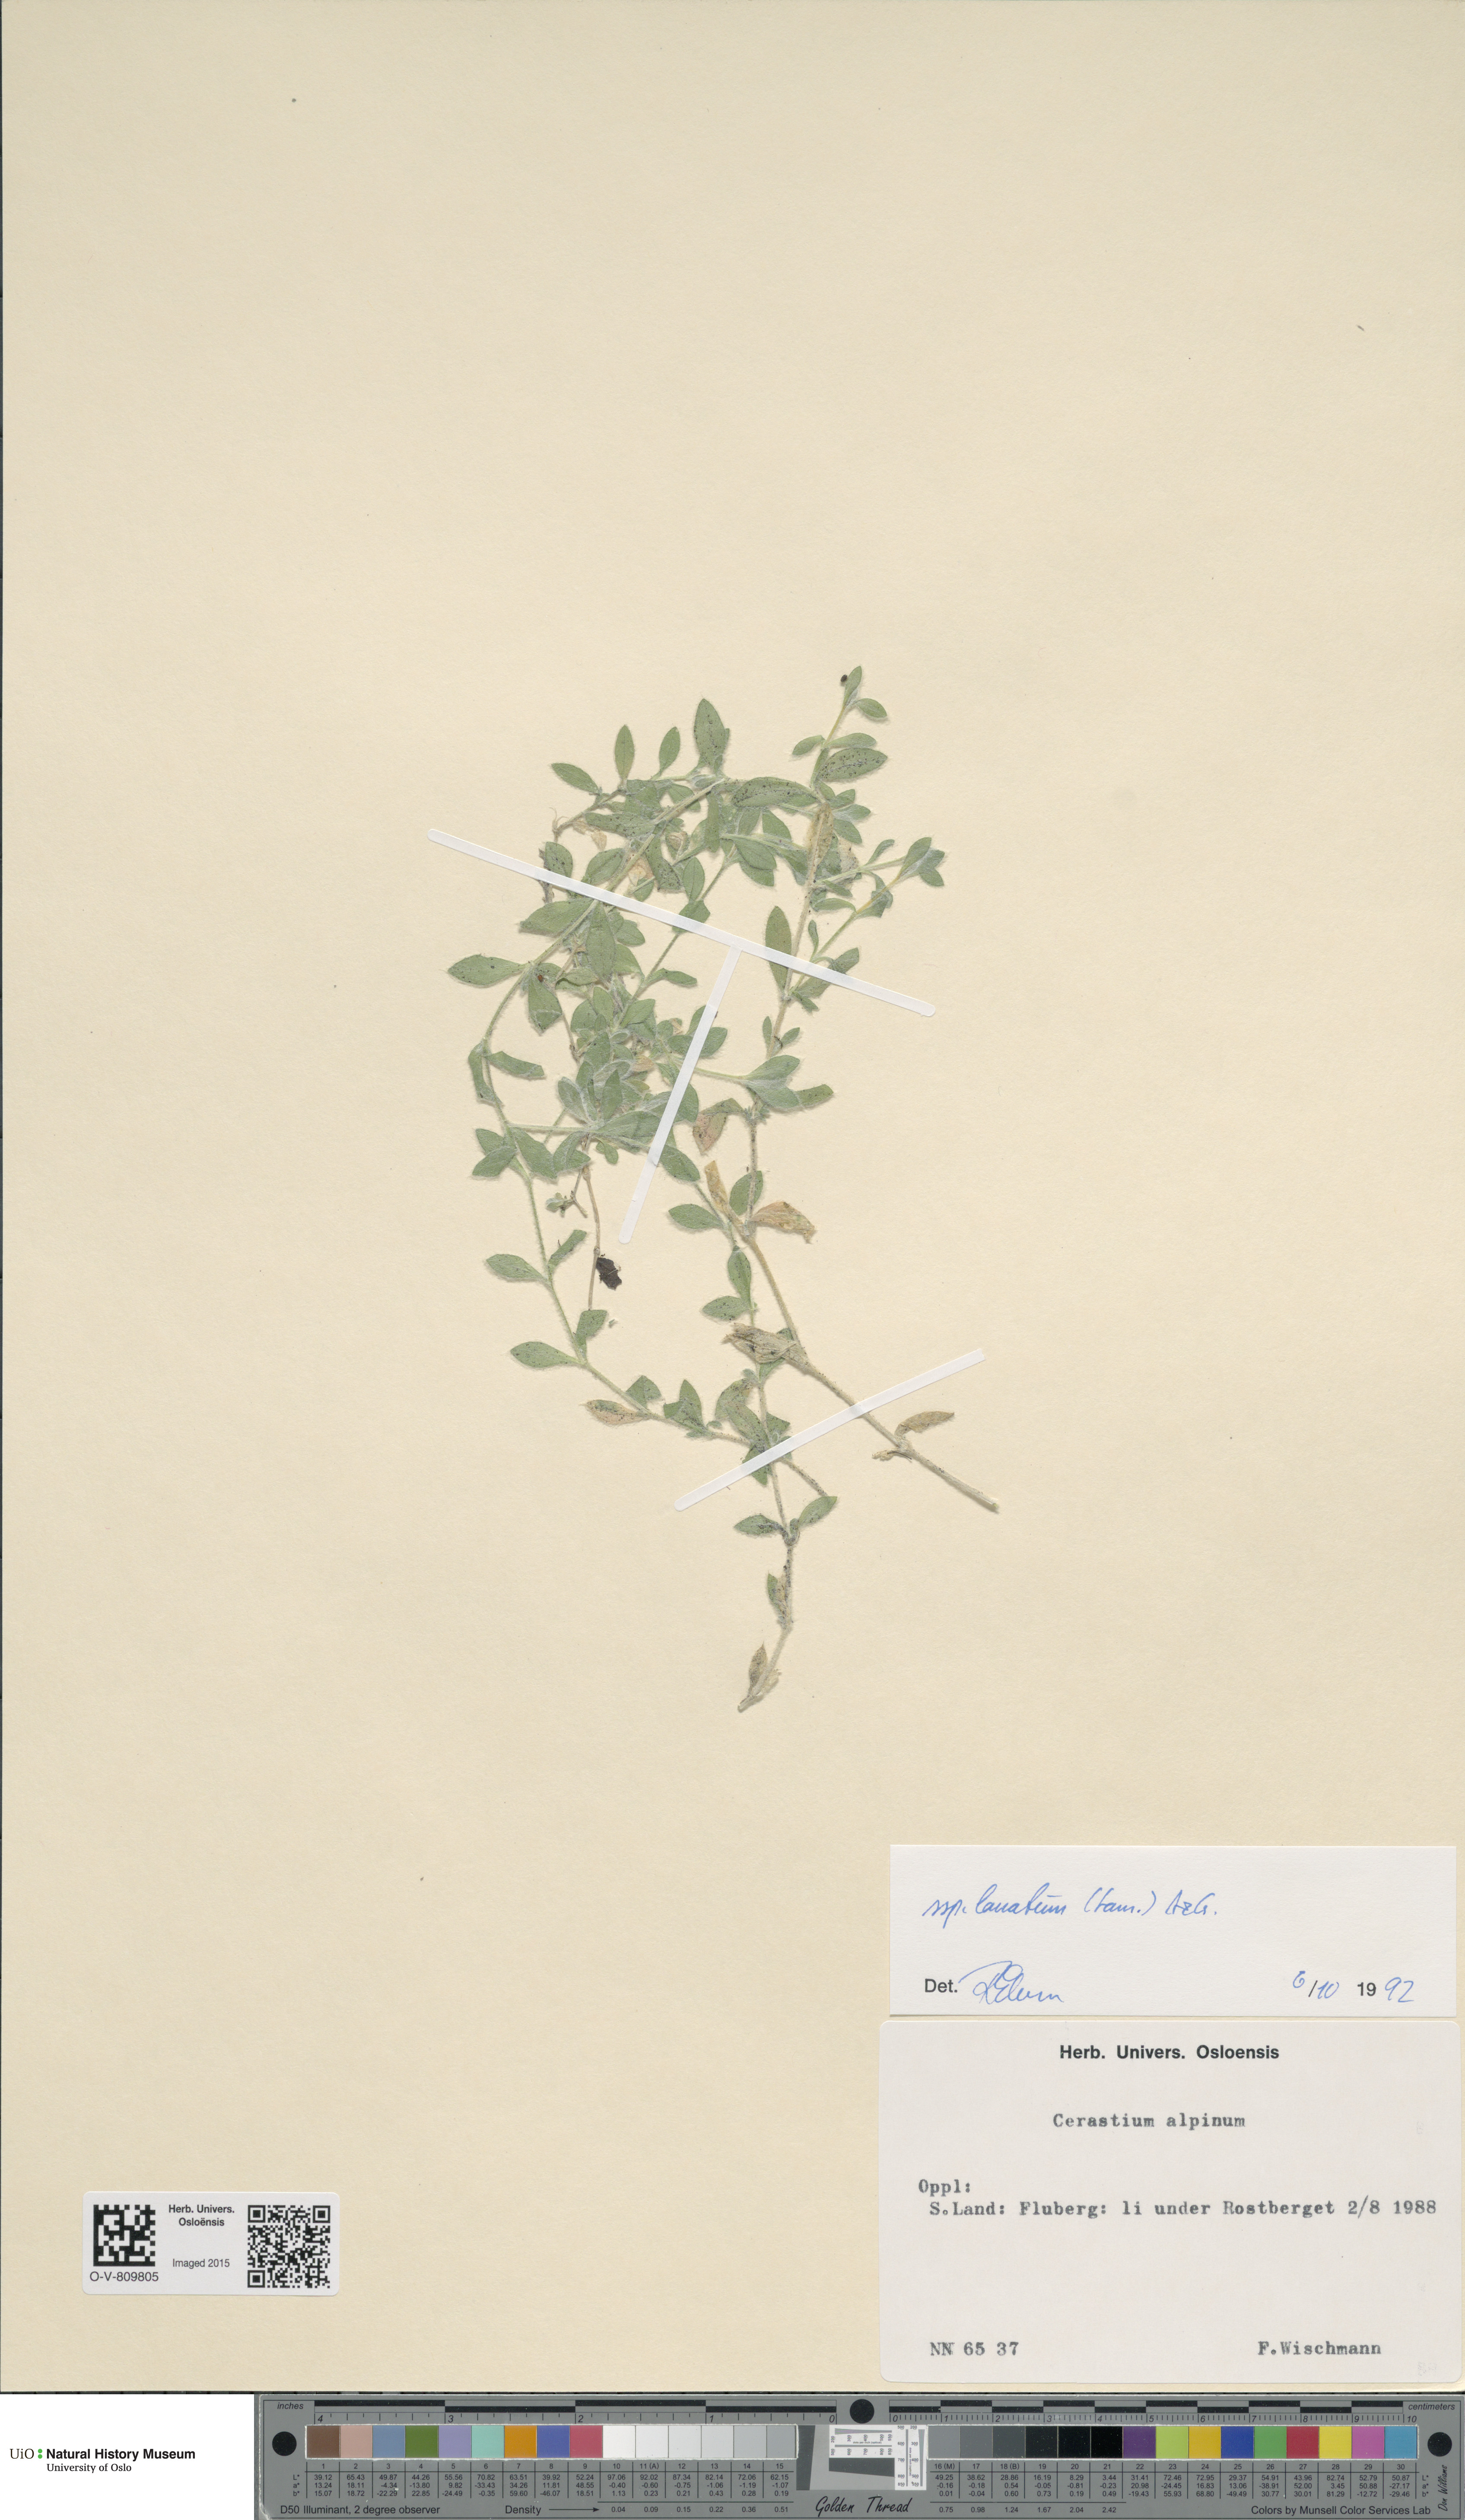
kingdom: Plantae
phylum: Tracheophyta
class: Magnoliopsida
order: Caryophyllales
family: Caryophyllaceae
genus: Cerastium
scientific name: Cerastium alpinum
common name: Alpine mouse-ear
